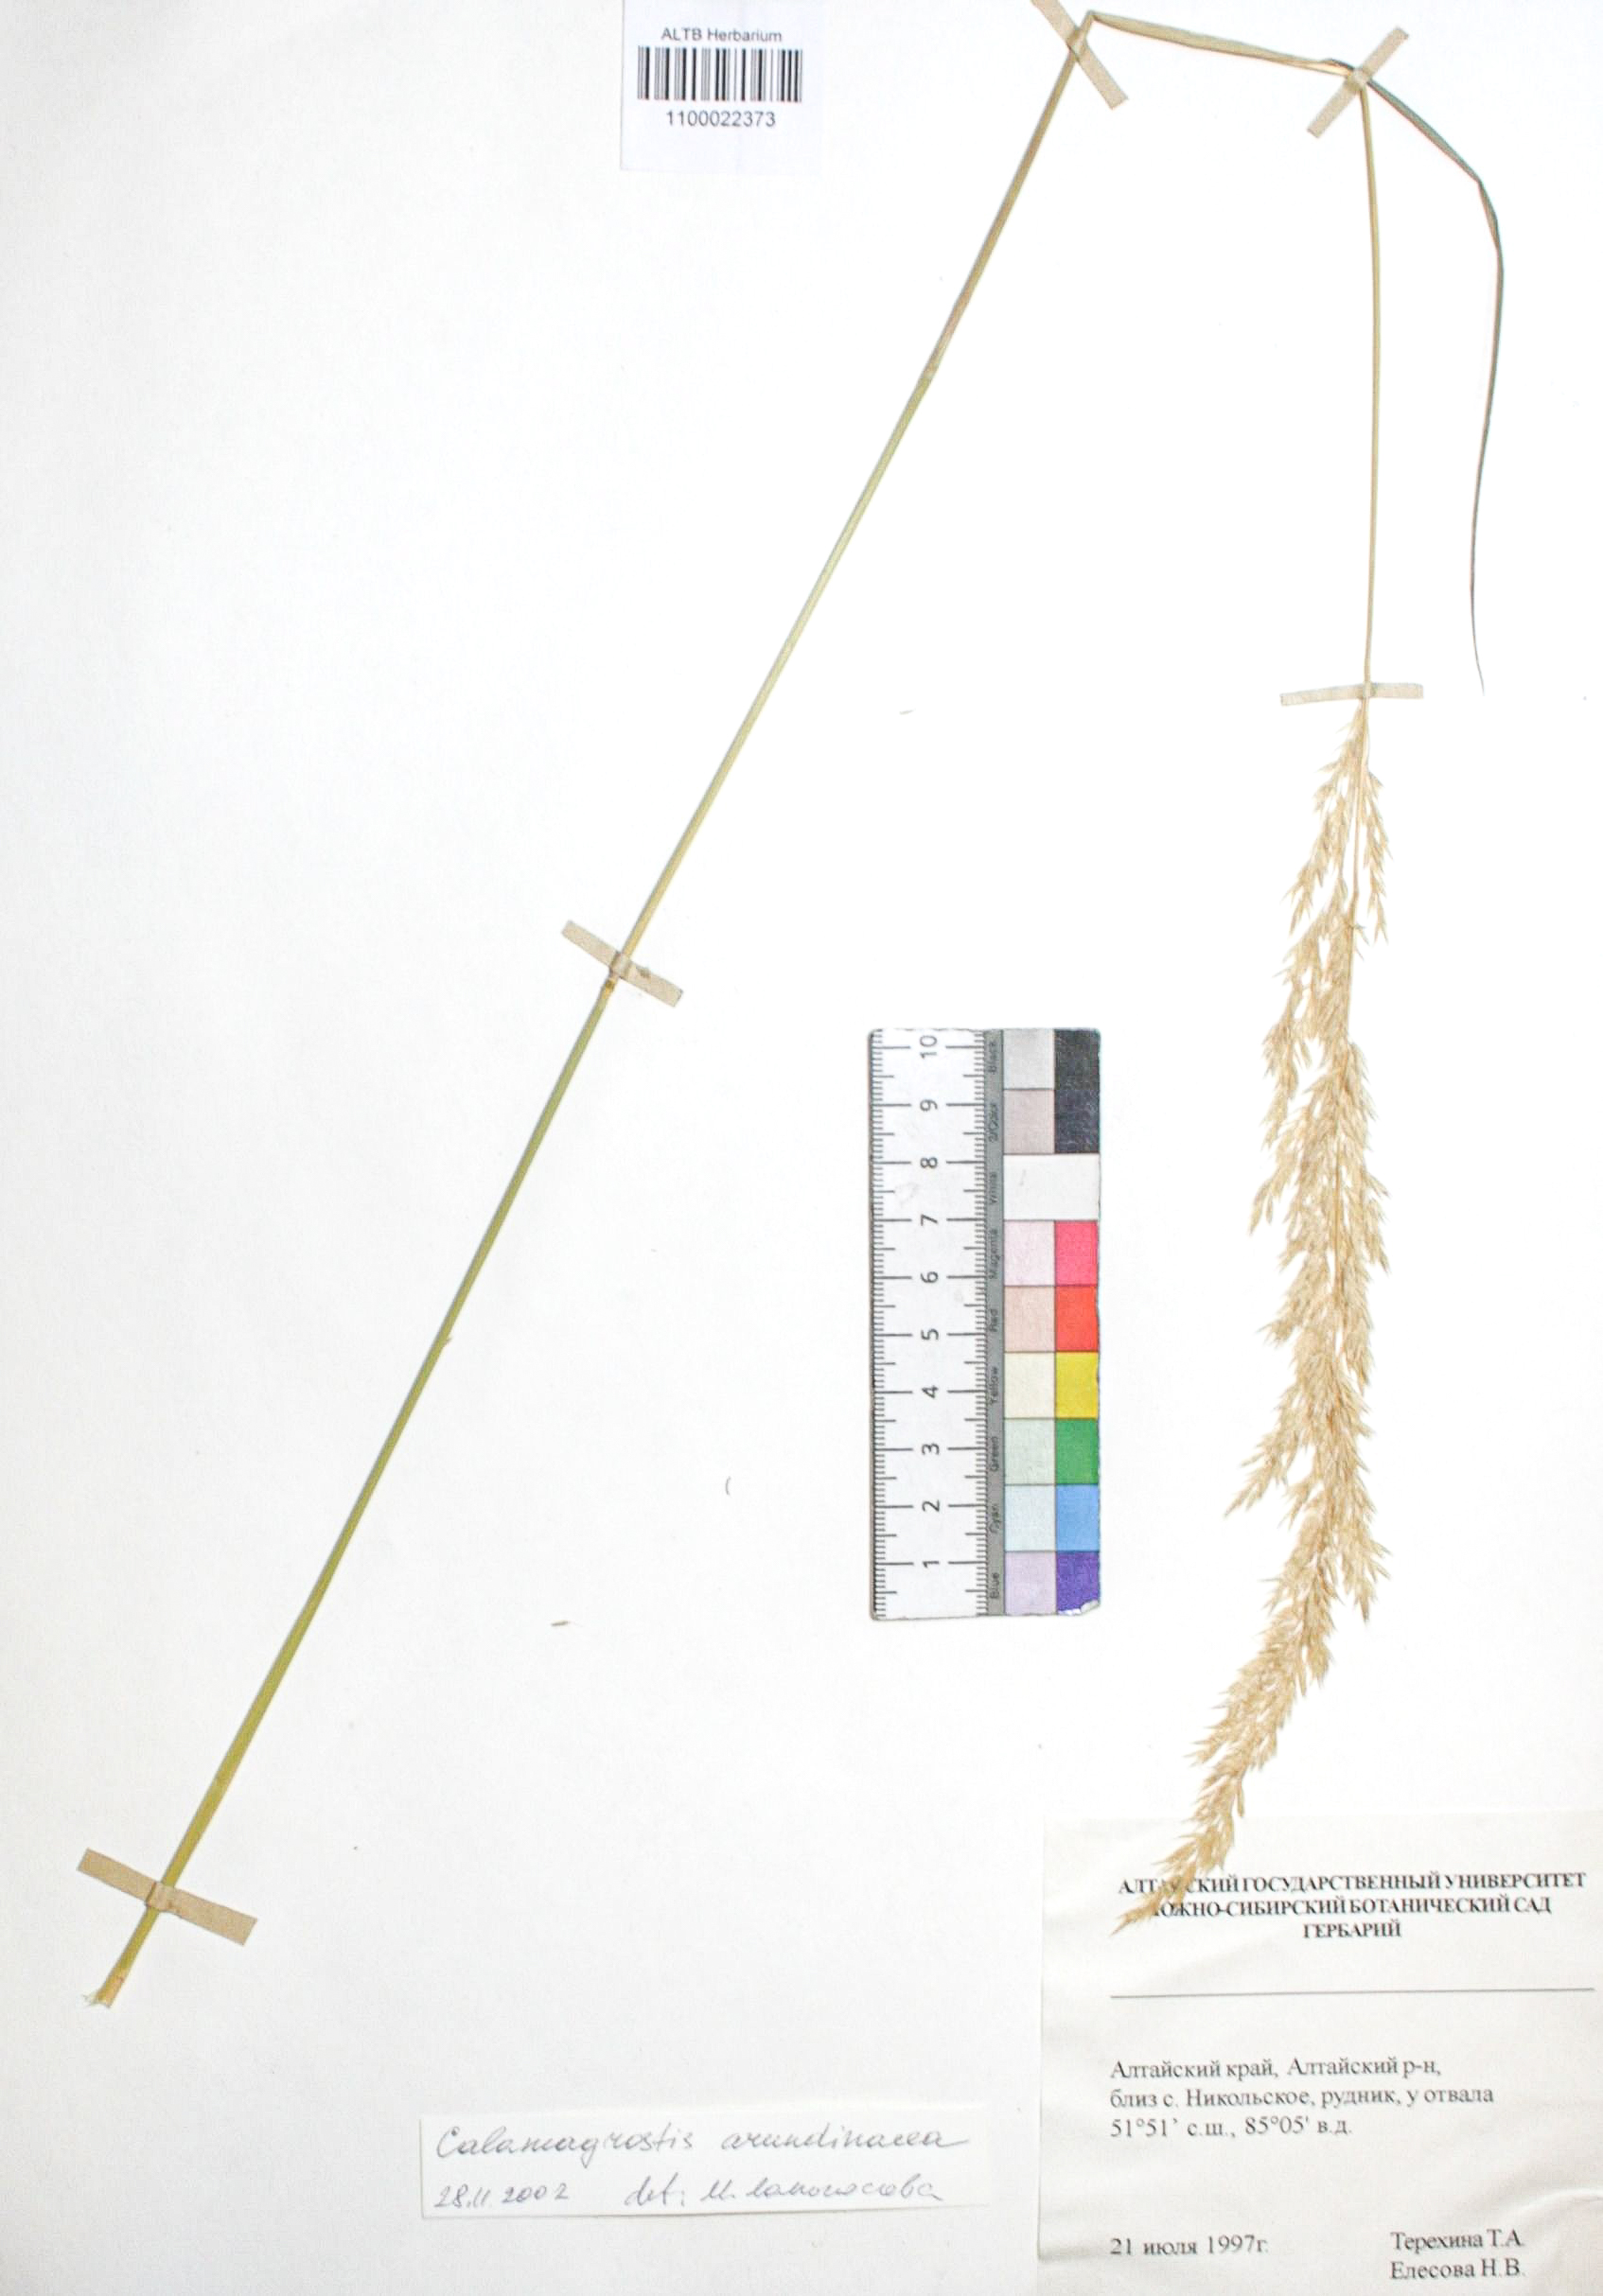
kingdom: Plantae
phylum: Tracheophyta
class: Liliopsida
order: Poales
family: Poaceae
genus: Calamagrostis
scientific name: Calamagrostis arundinacea
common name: Metskastik
